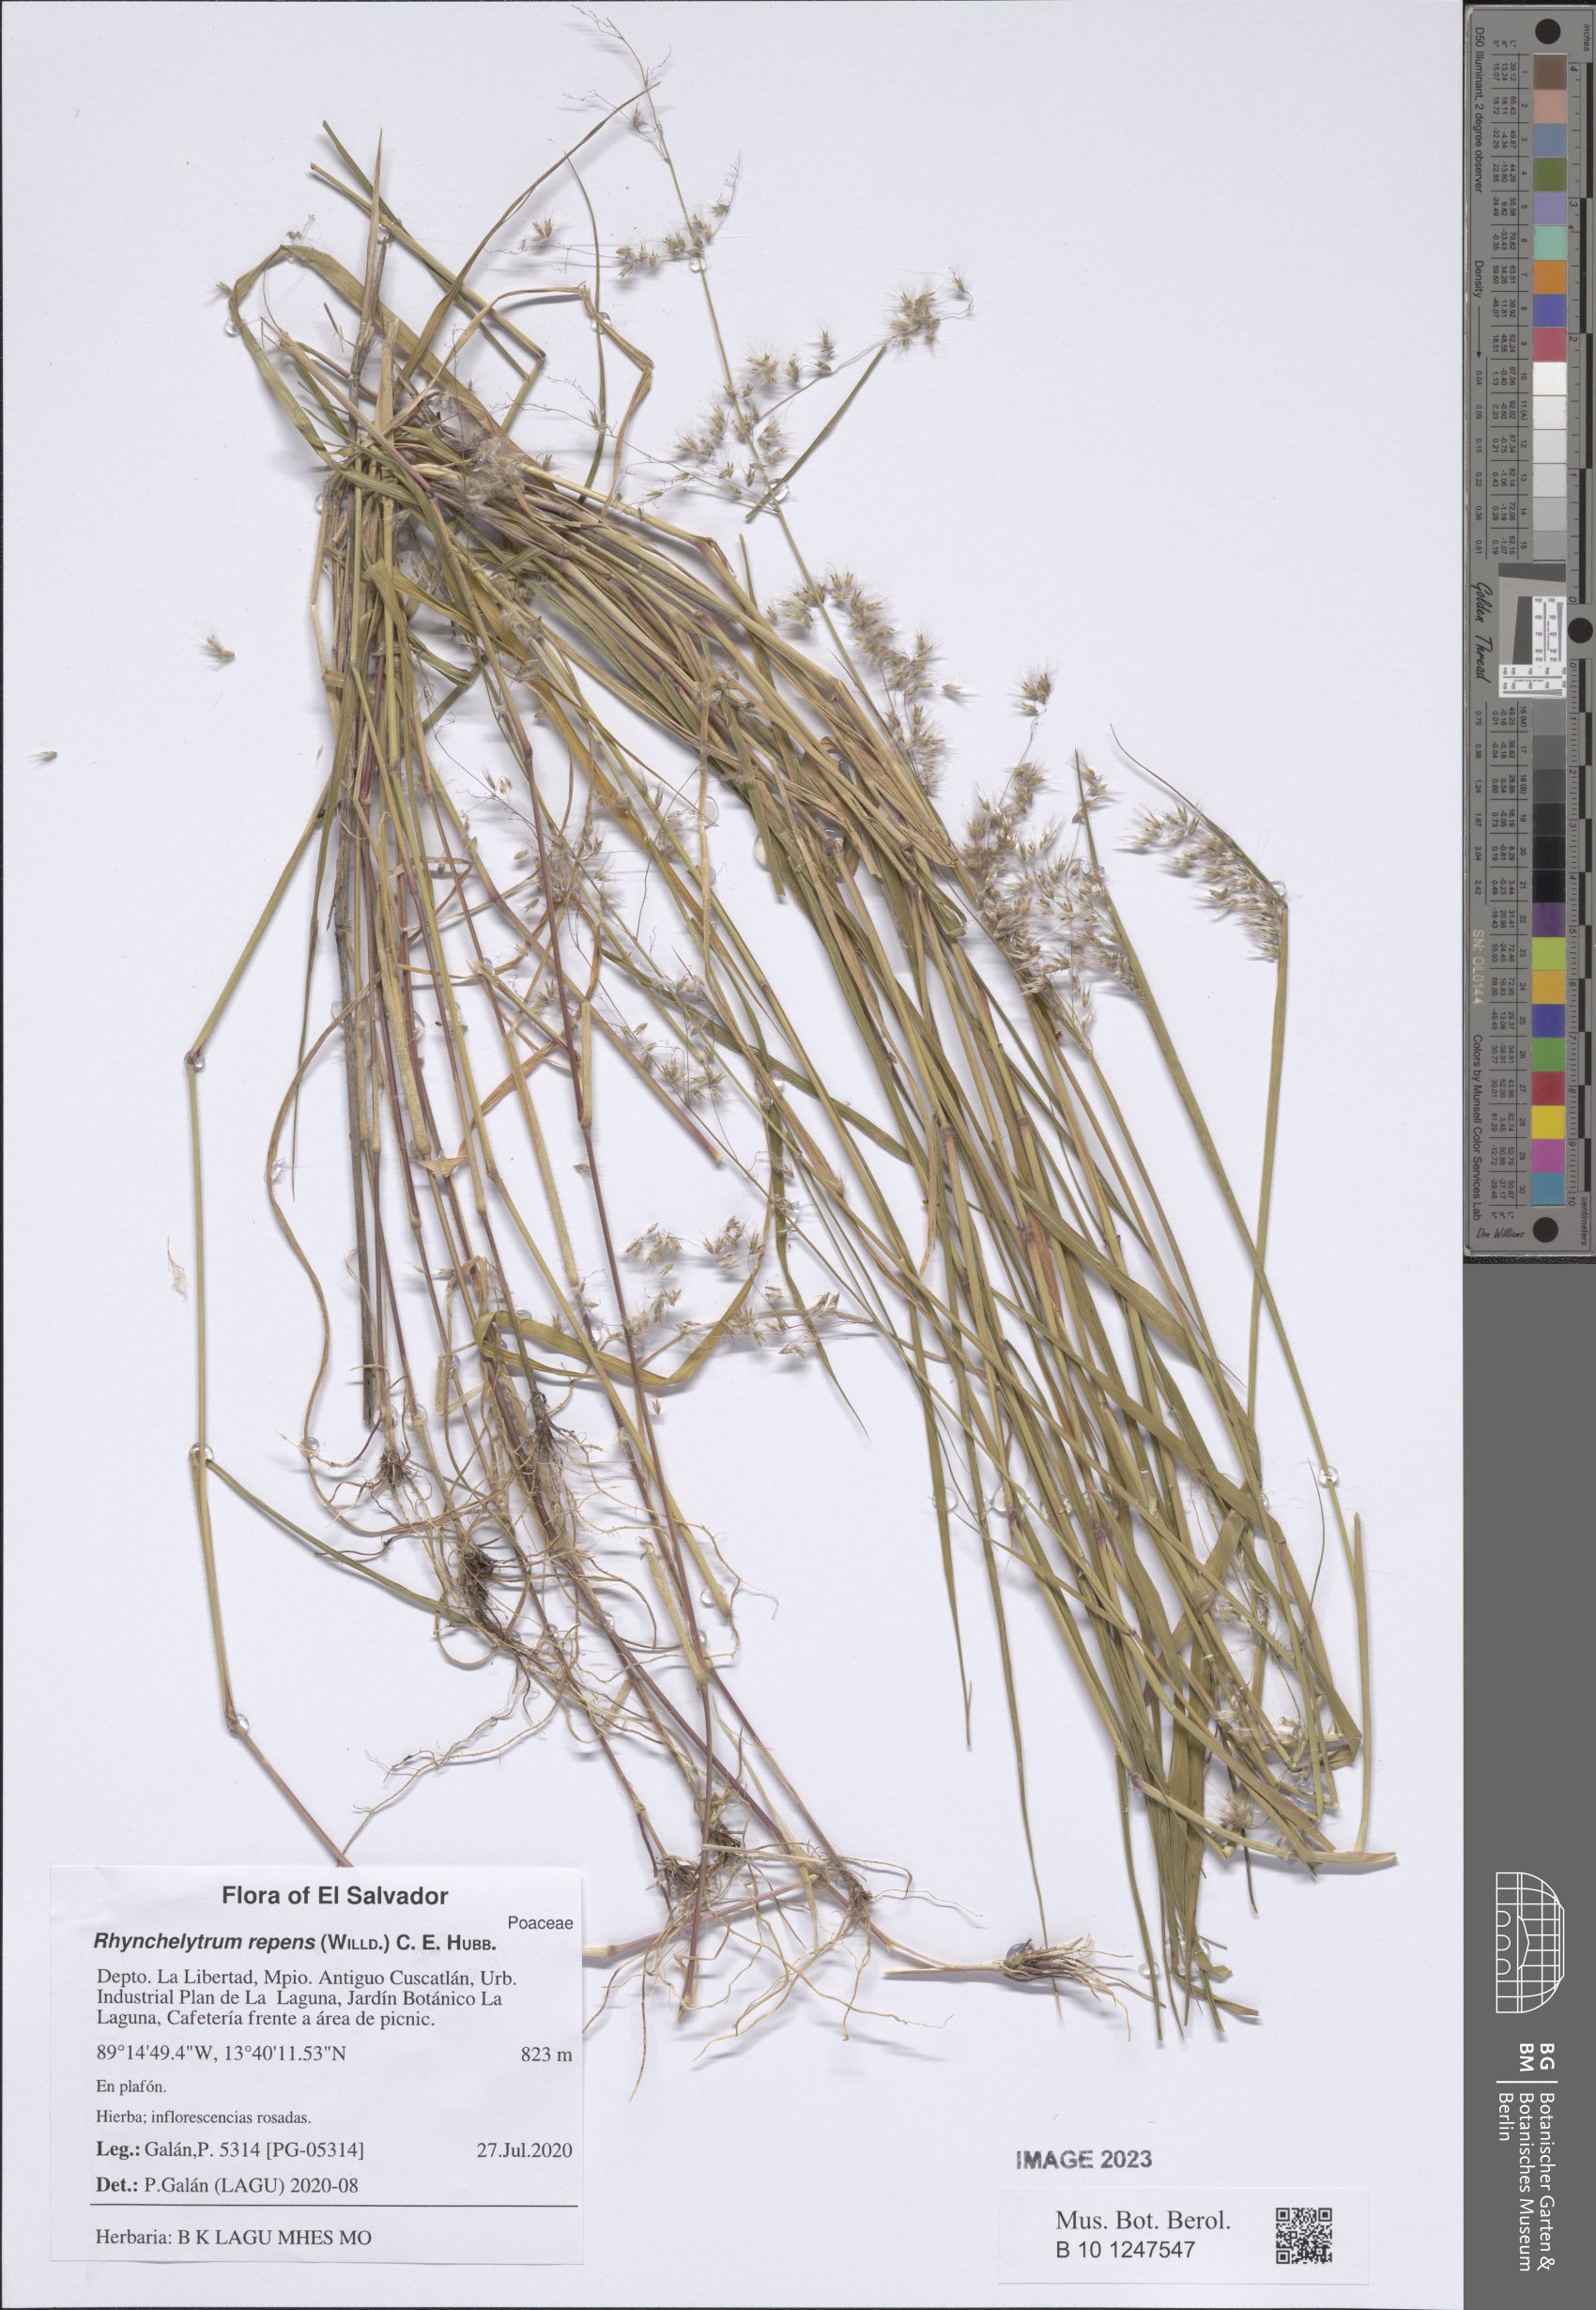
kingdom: Plantae
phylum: Tracheophyta
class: Liliopsida
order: Poales
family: Poaceae
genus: Melinis
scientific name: Melinis repens
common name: Rose natal grass
